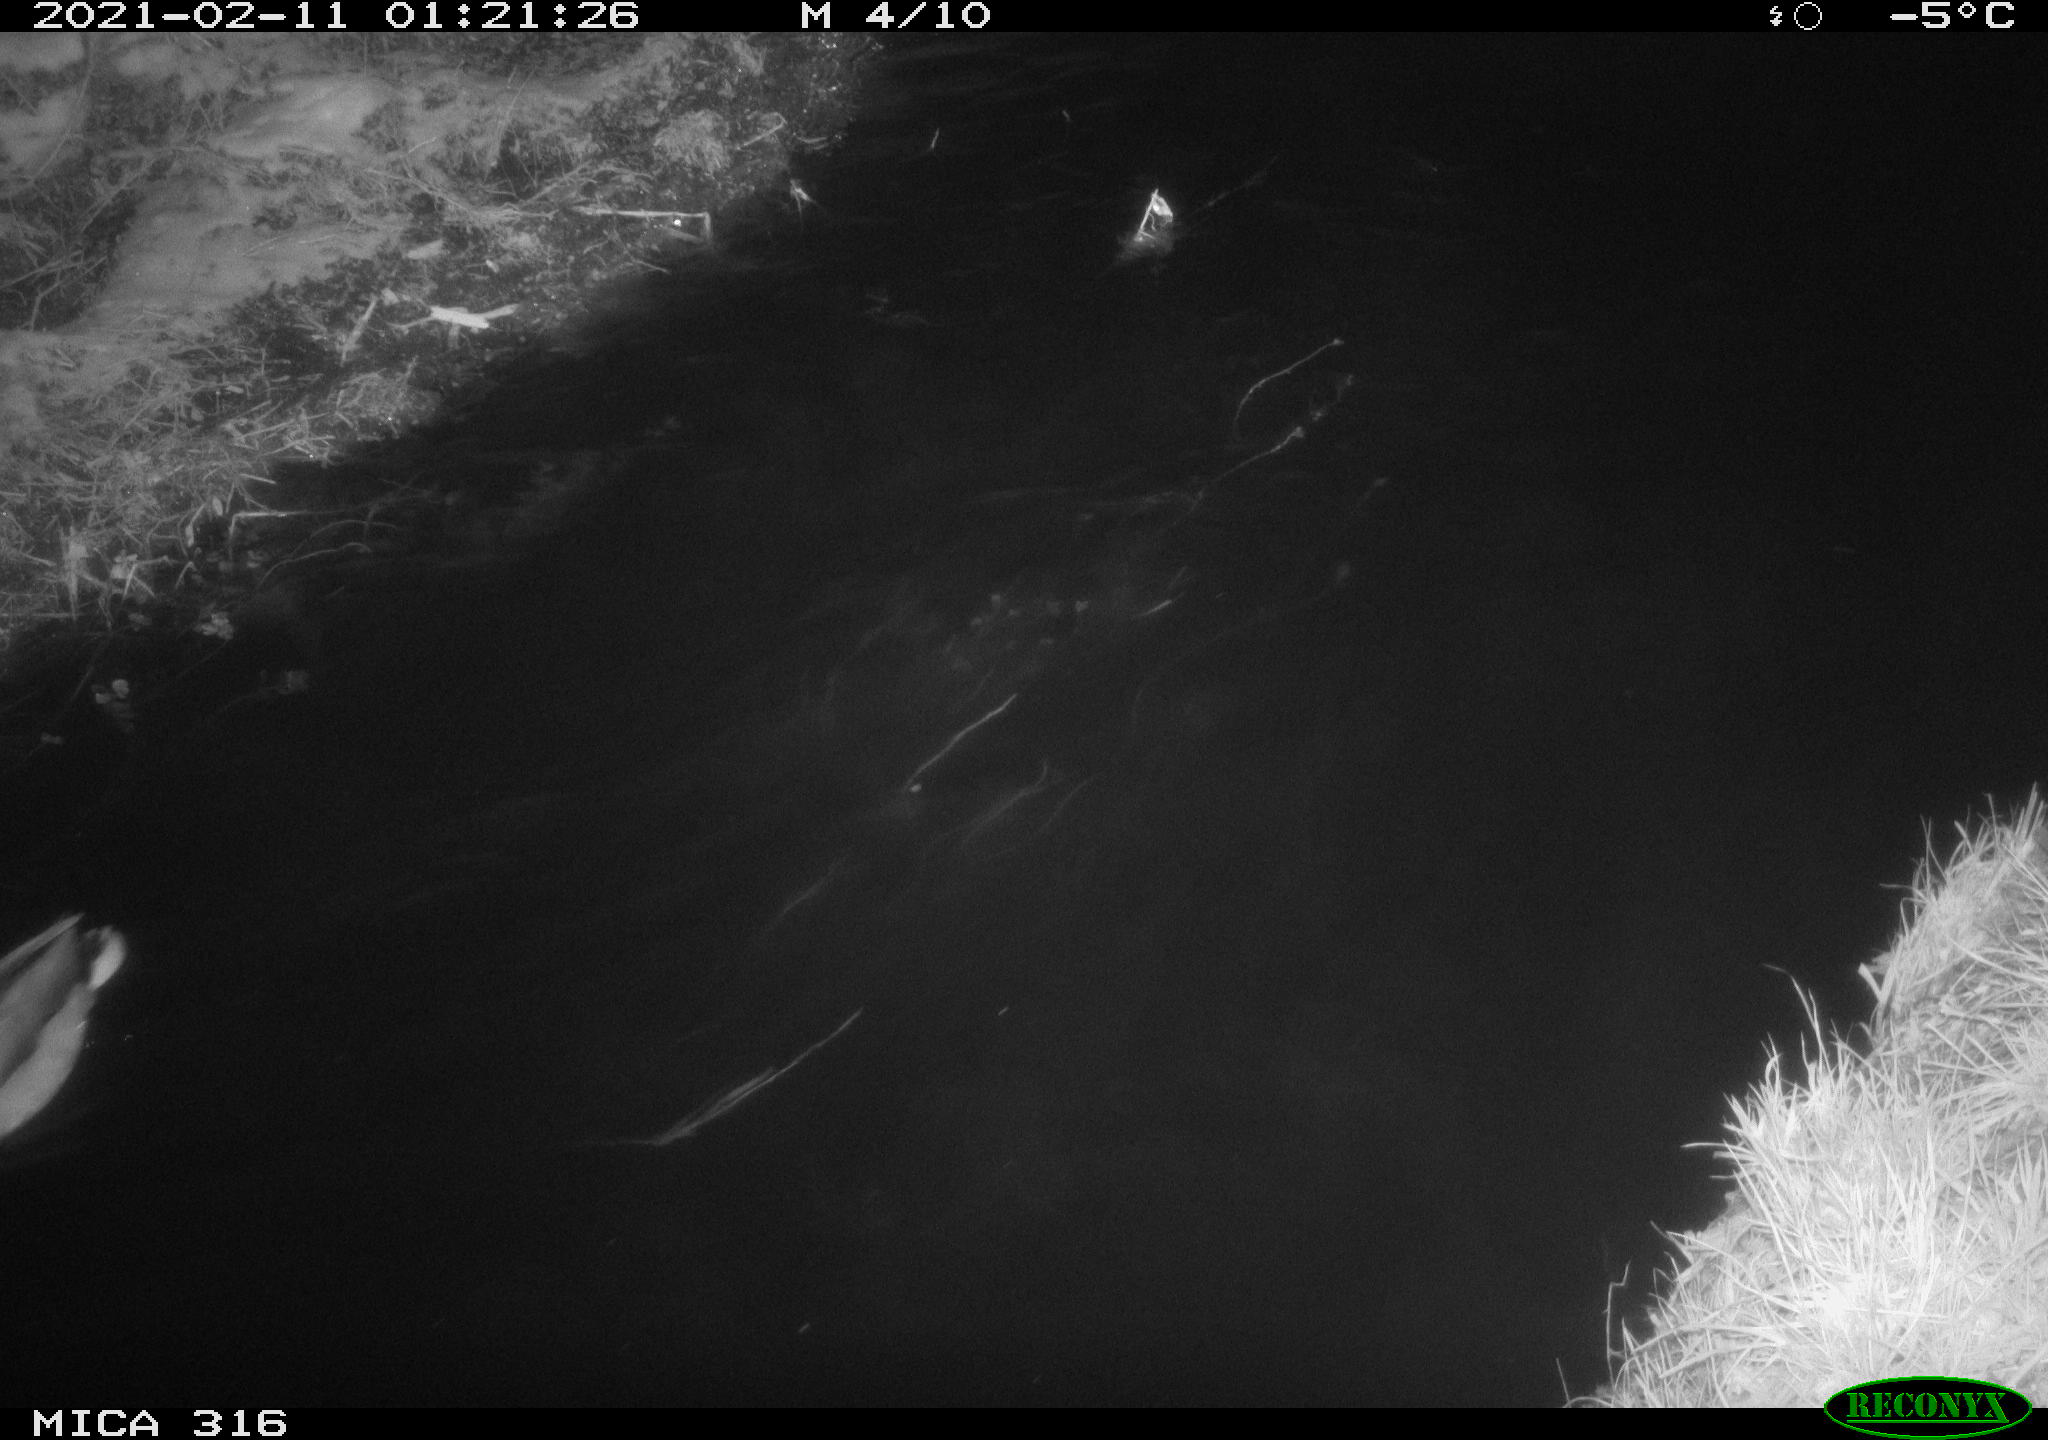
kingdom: Animalia
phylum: Chordata
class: Aves
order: Anseriformes
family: Anatidae
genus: Anas
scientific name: Anas platyrhynchos
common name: Mallard
